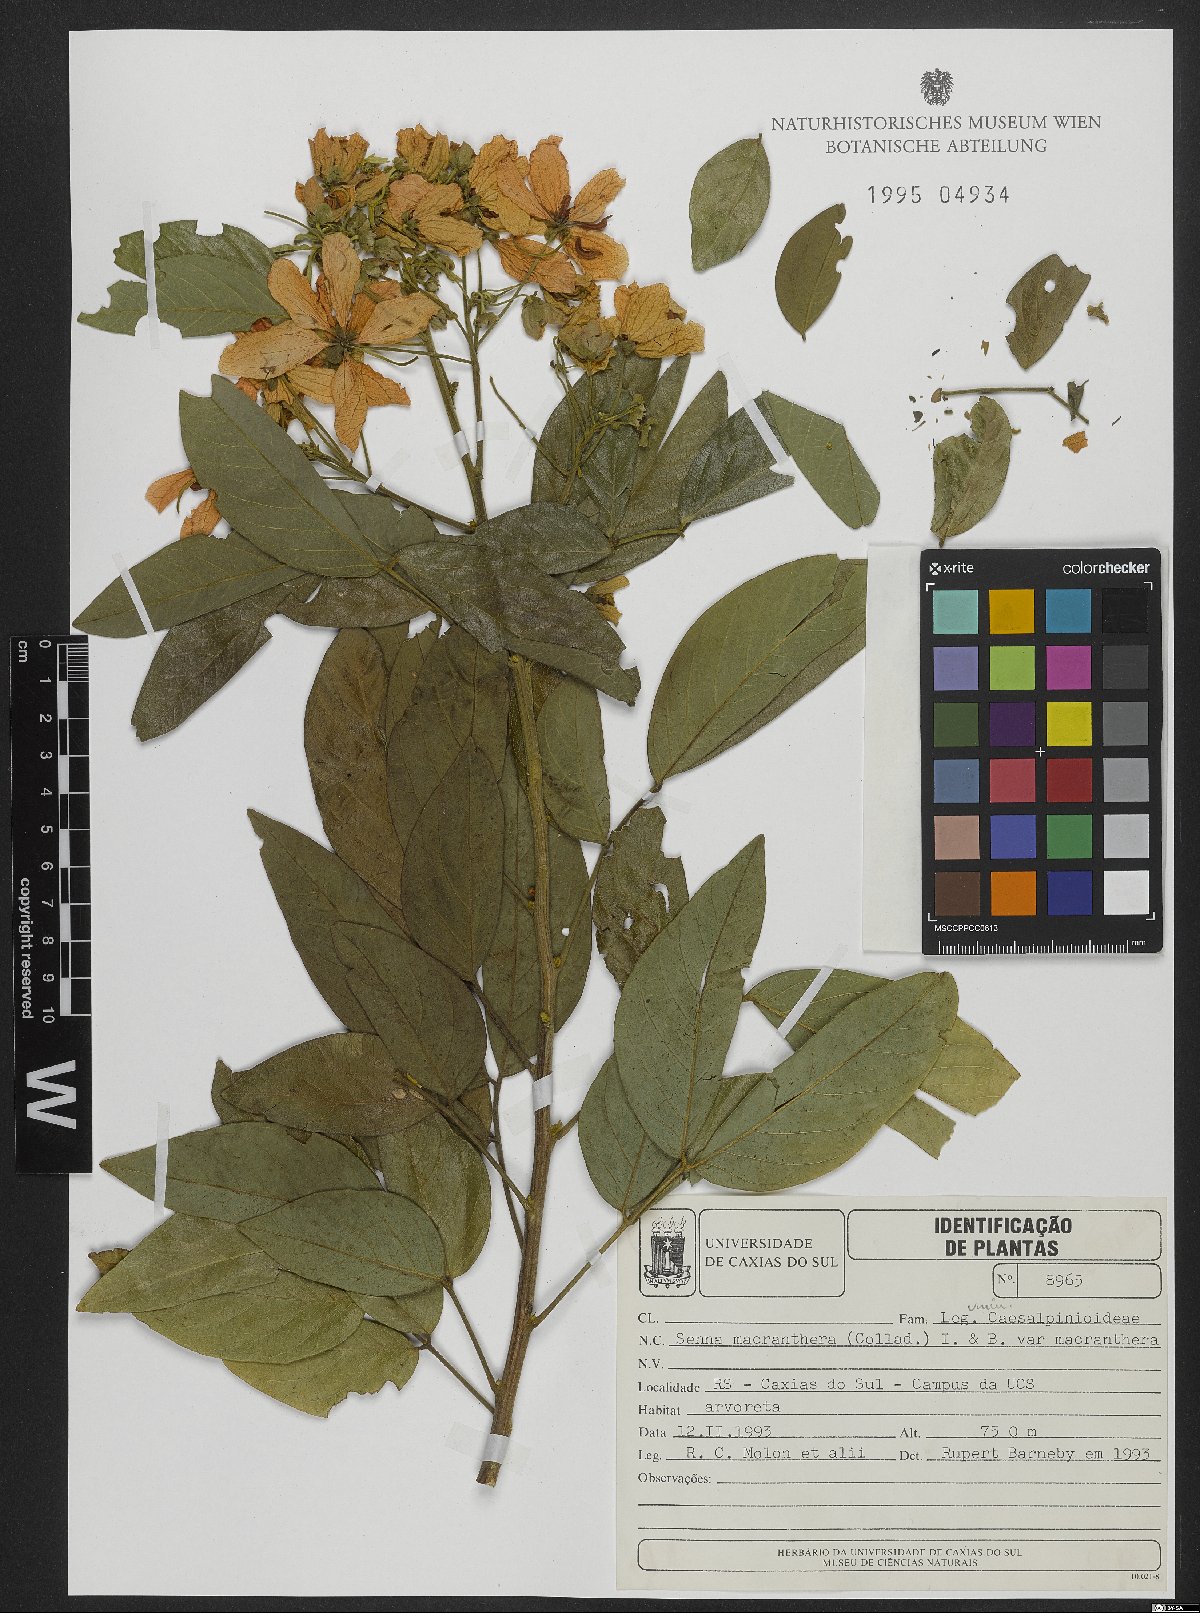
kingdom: Plantae
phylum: Tracheophyta
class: Magnoliopsida
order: Fabales
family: Fabaceae
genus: Senna
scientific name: Senna macranthera
